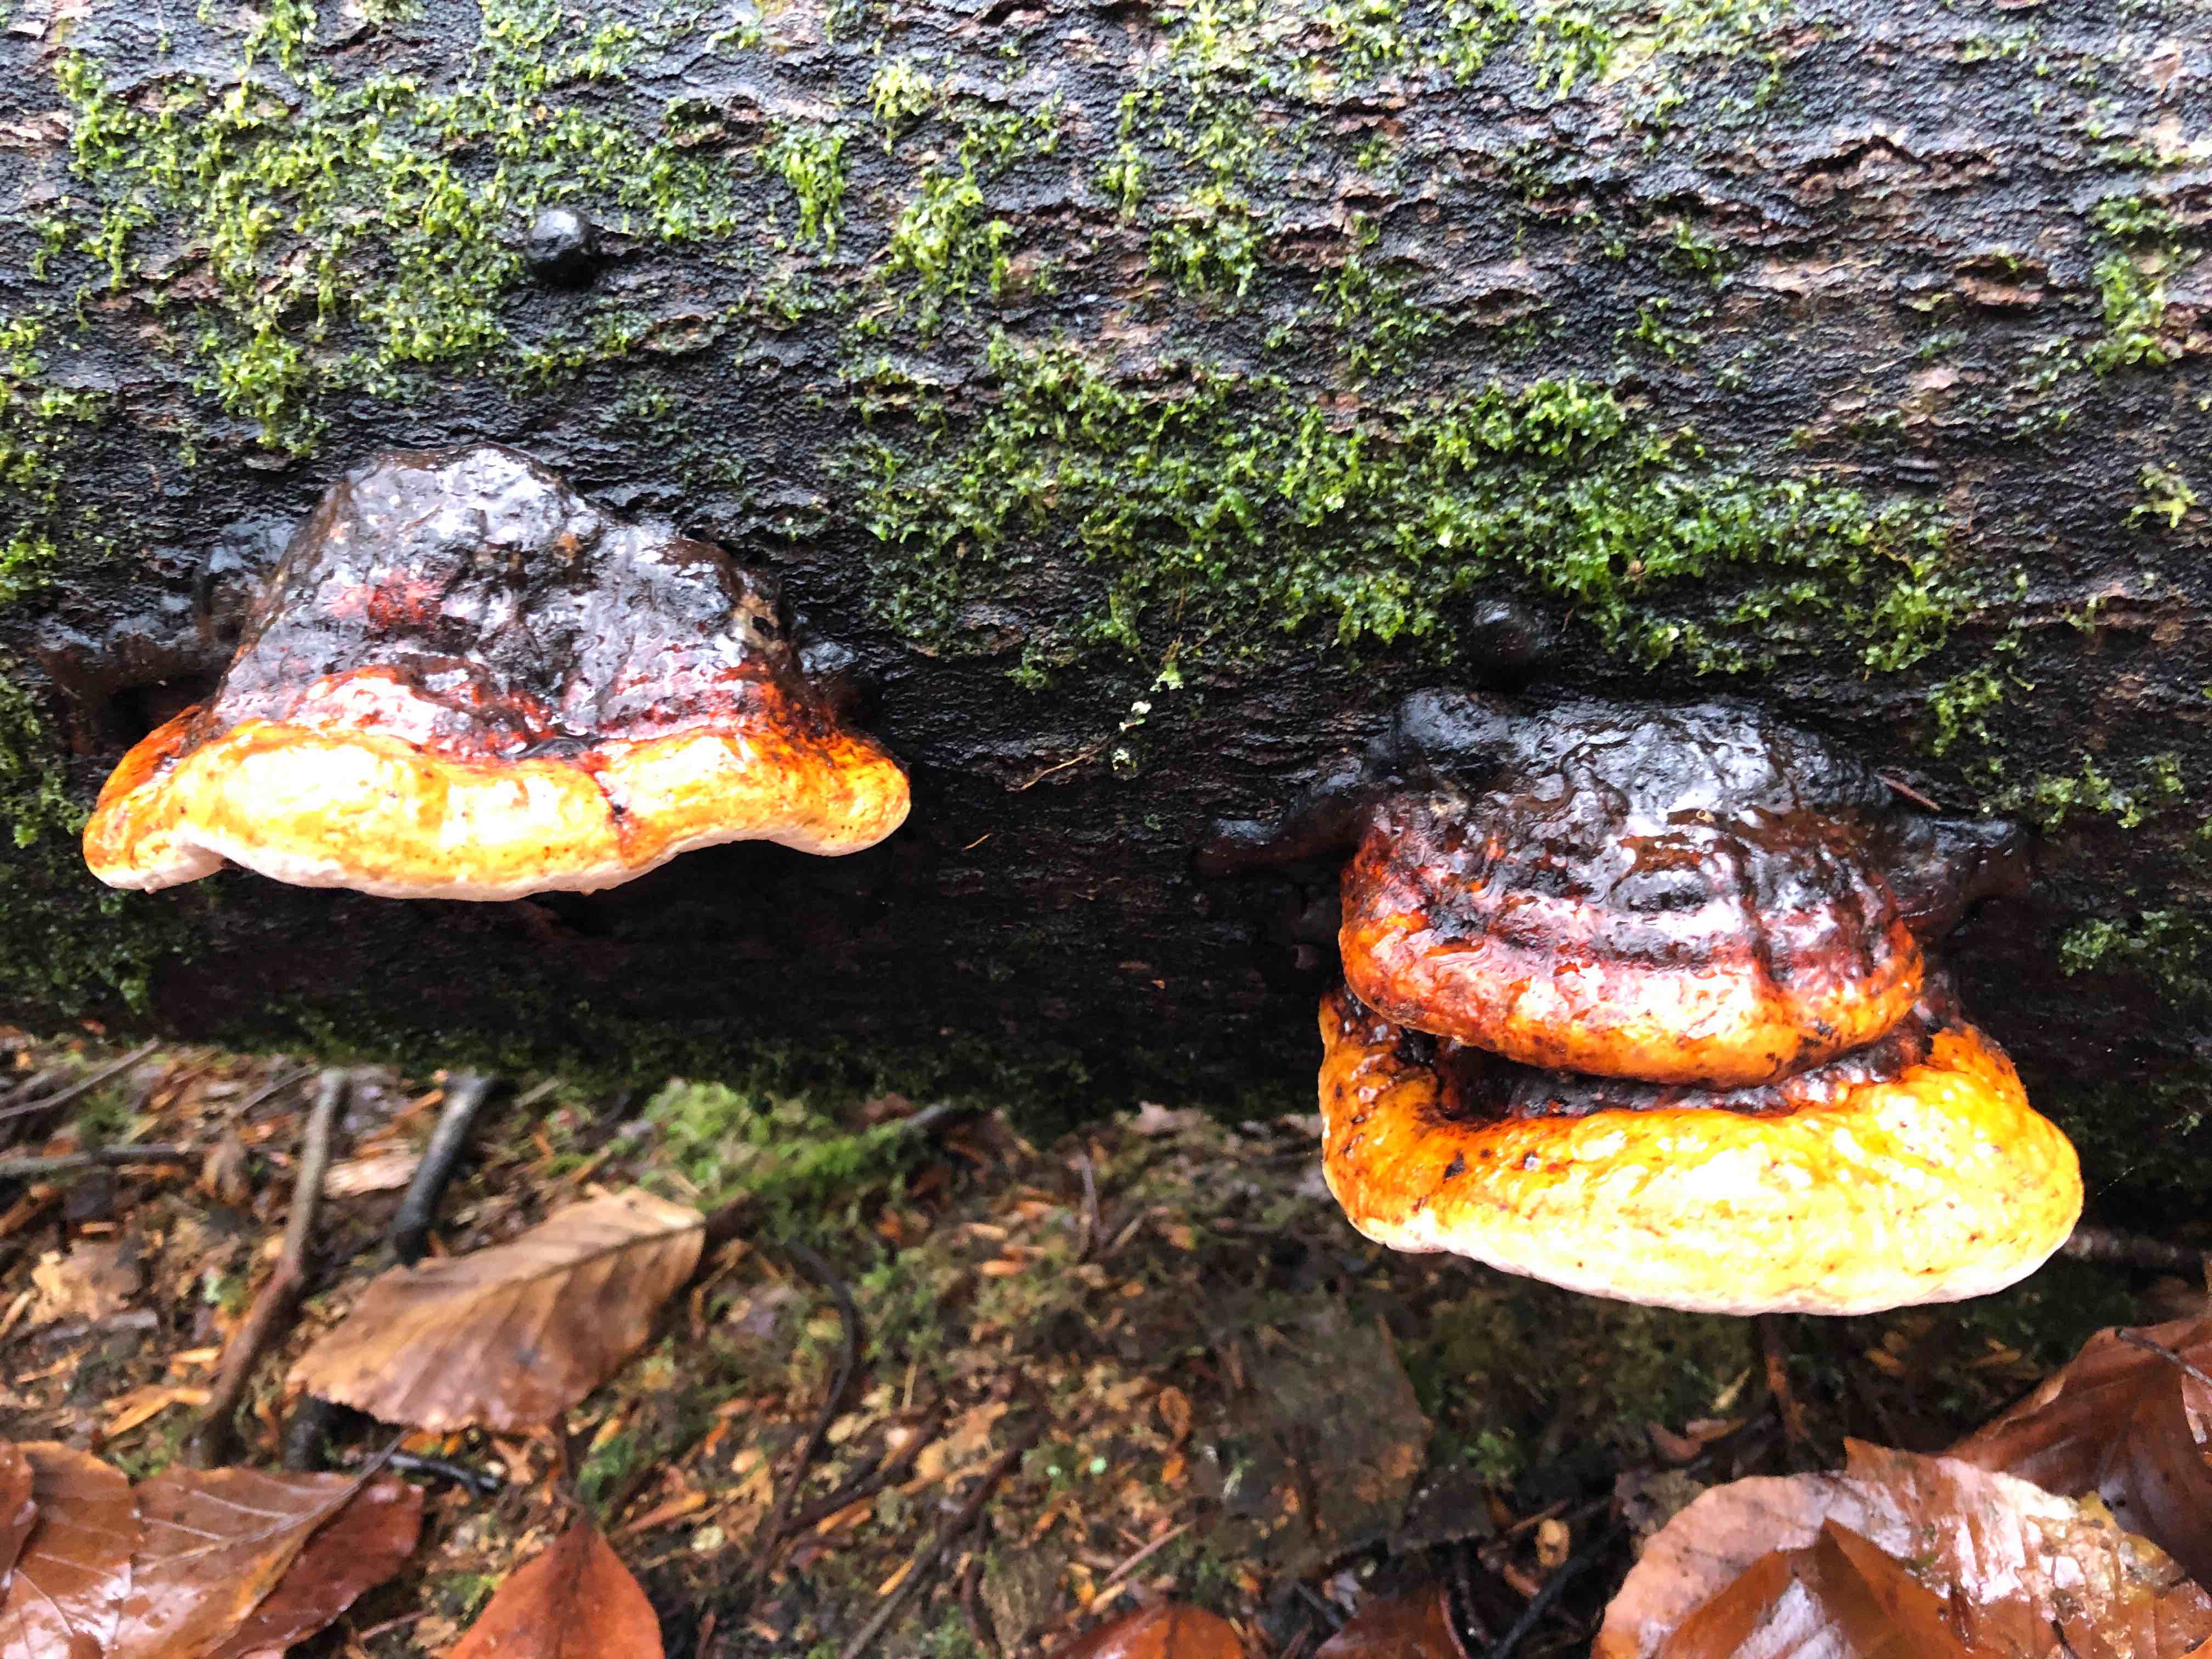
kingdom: Fungi
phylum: Basidiomycota
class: Agaricomycetes
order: Polyporales
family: Fomitopsidaceae
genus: Fomitopsis
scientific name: Fomitopsis pinicola
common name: randbæltet hovporesvamp
